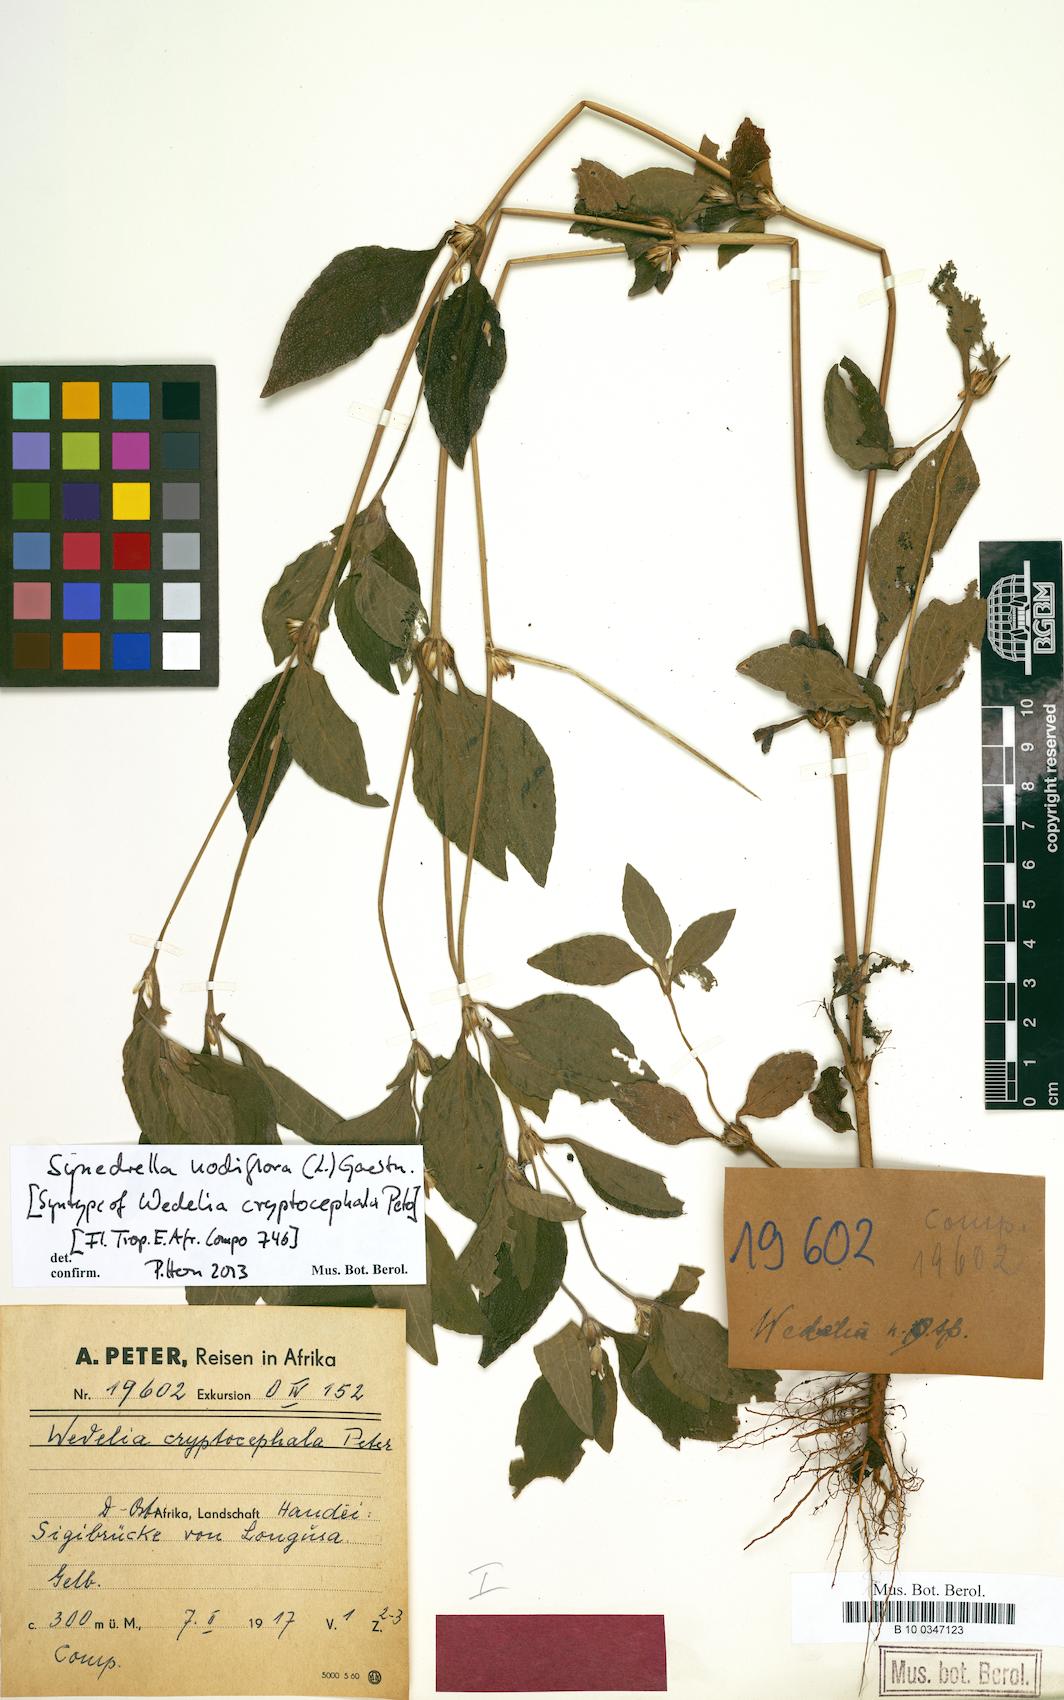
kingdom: Plantae
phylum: Tracheophyta
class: Magnoliopsida
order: Asterales
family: Asteraceae
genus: Synedrella
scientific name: Synedrella nodiflora
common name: Nodeweed
